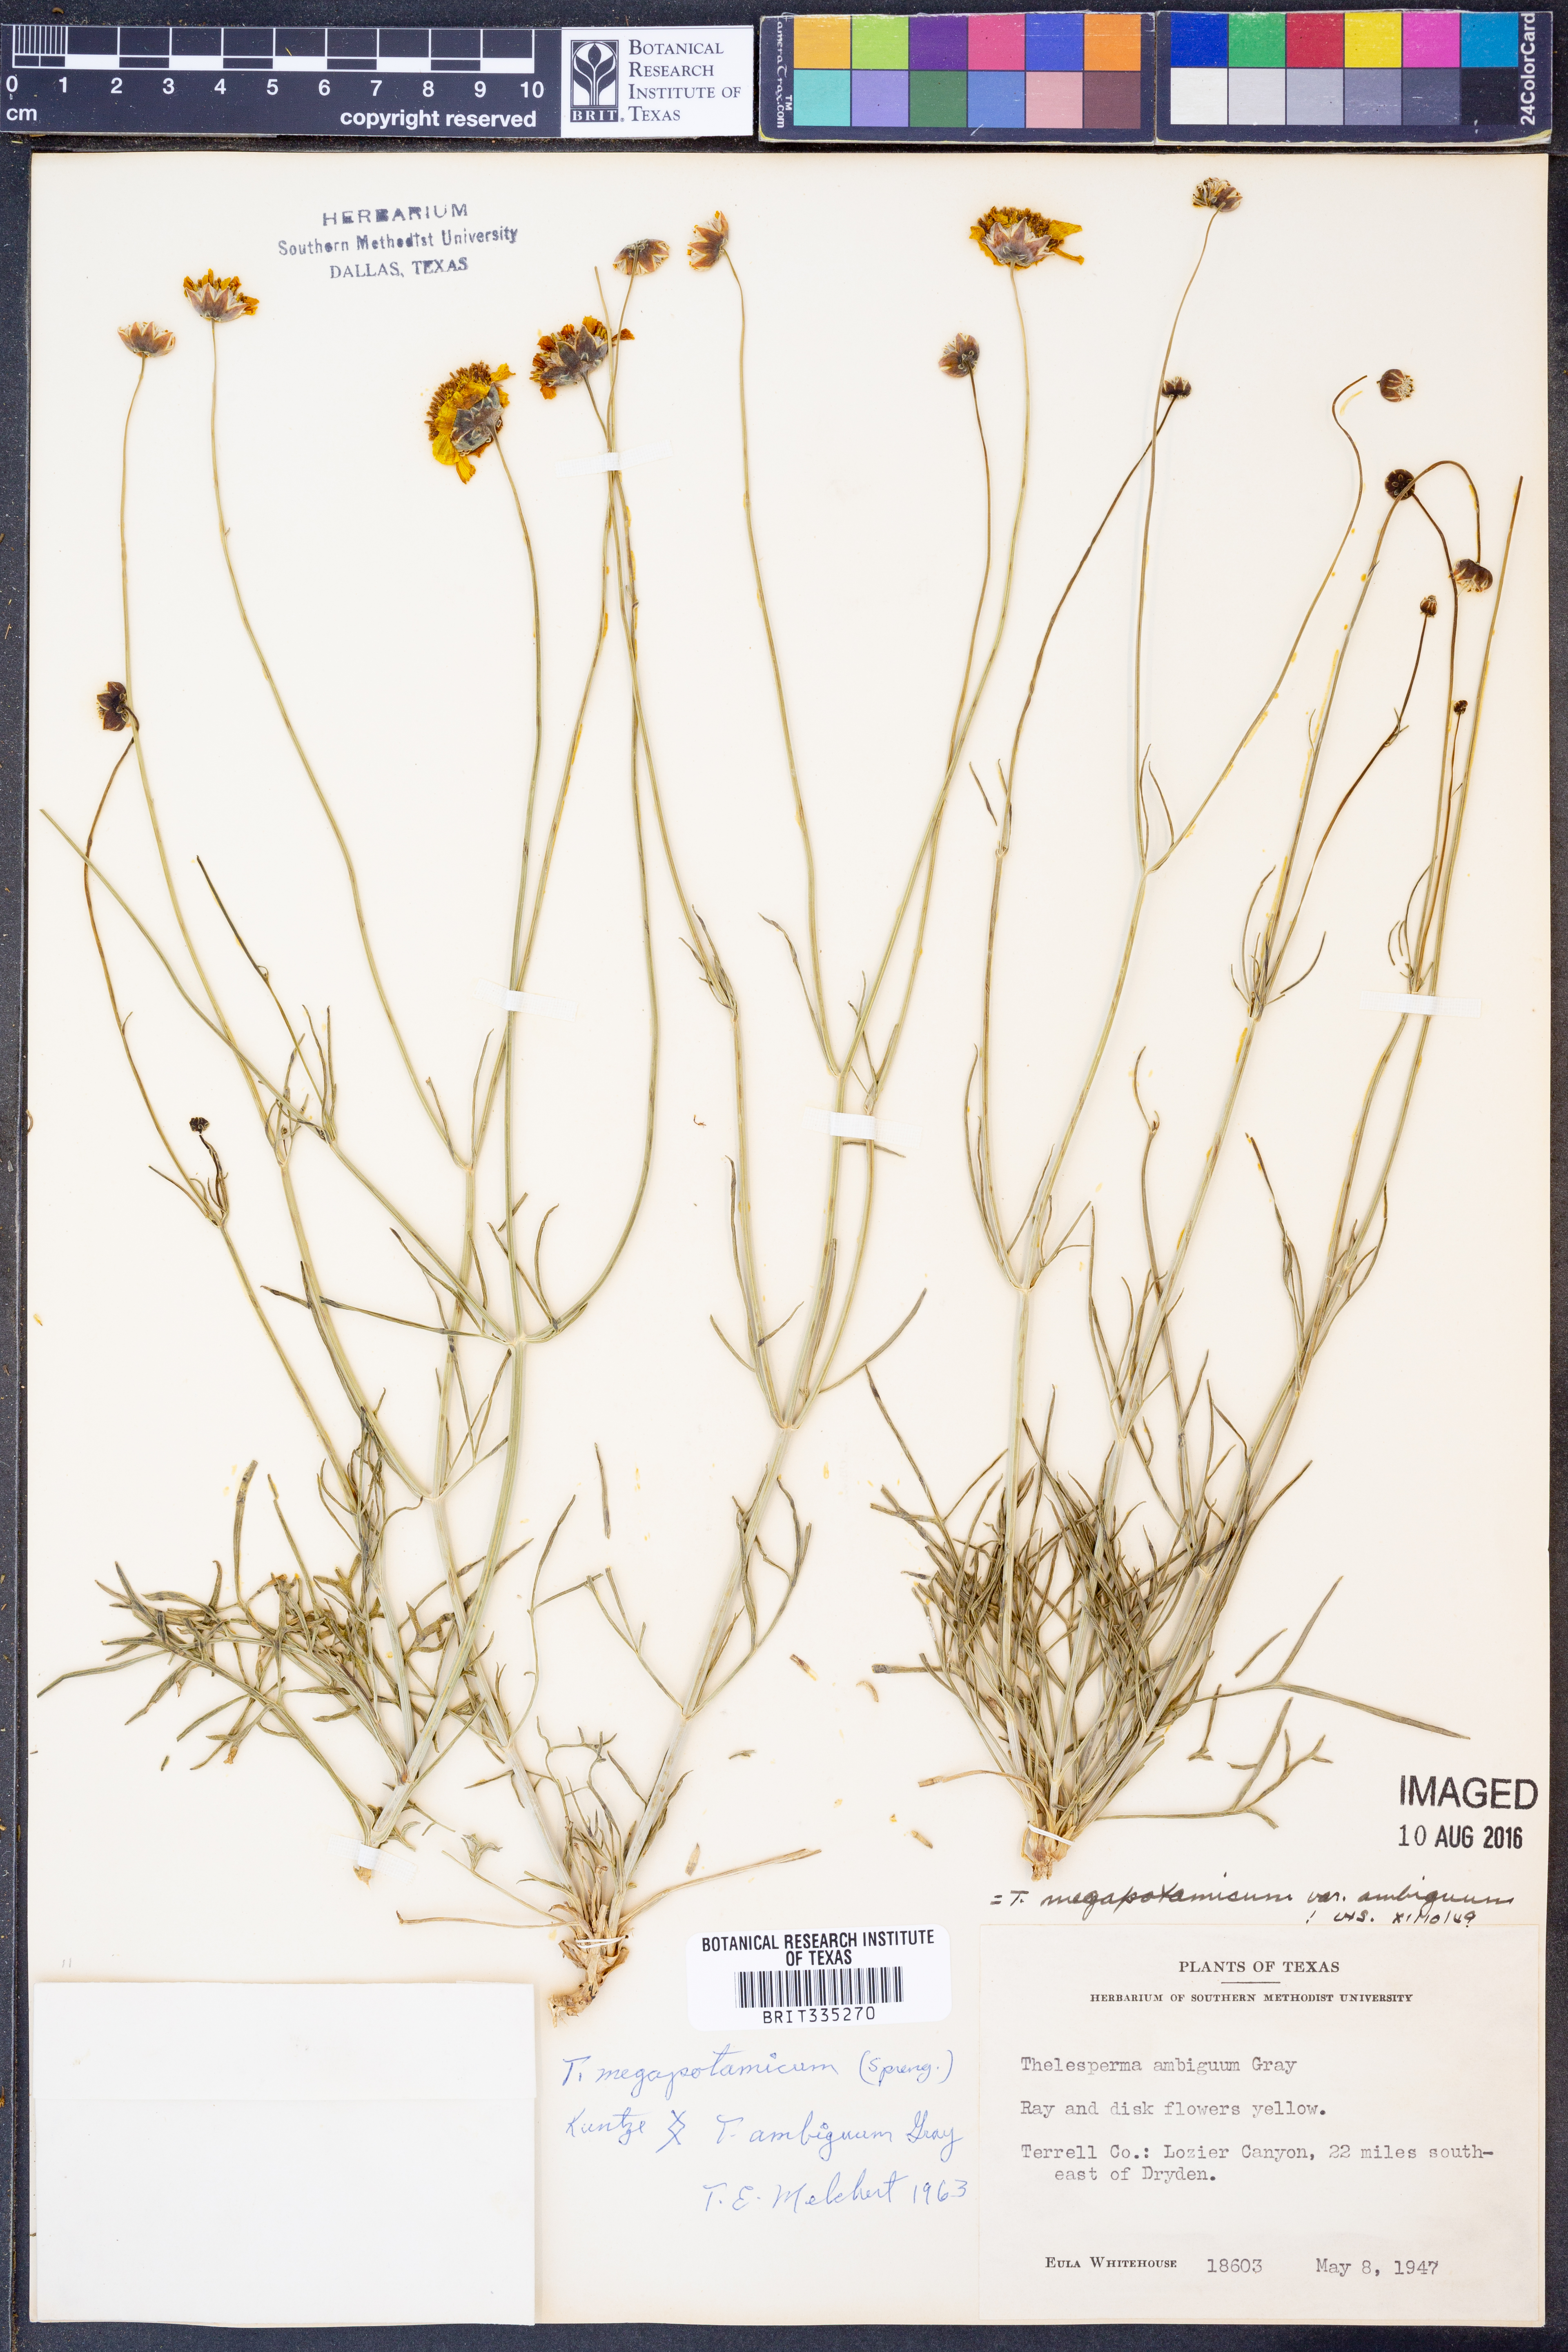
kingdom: Plantae
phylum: Tracheophyta
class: Magnoliopsida
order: Asterales
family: Asteraceae
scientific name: Asteraceae
